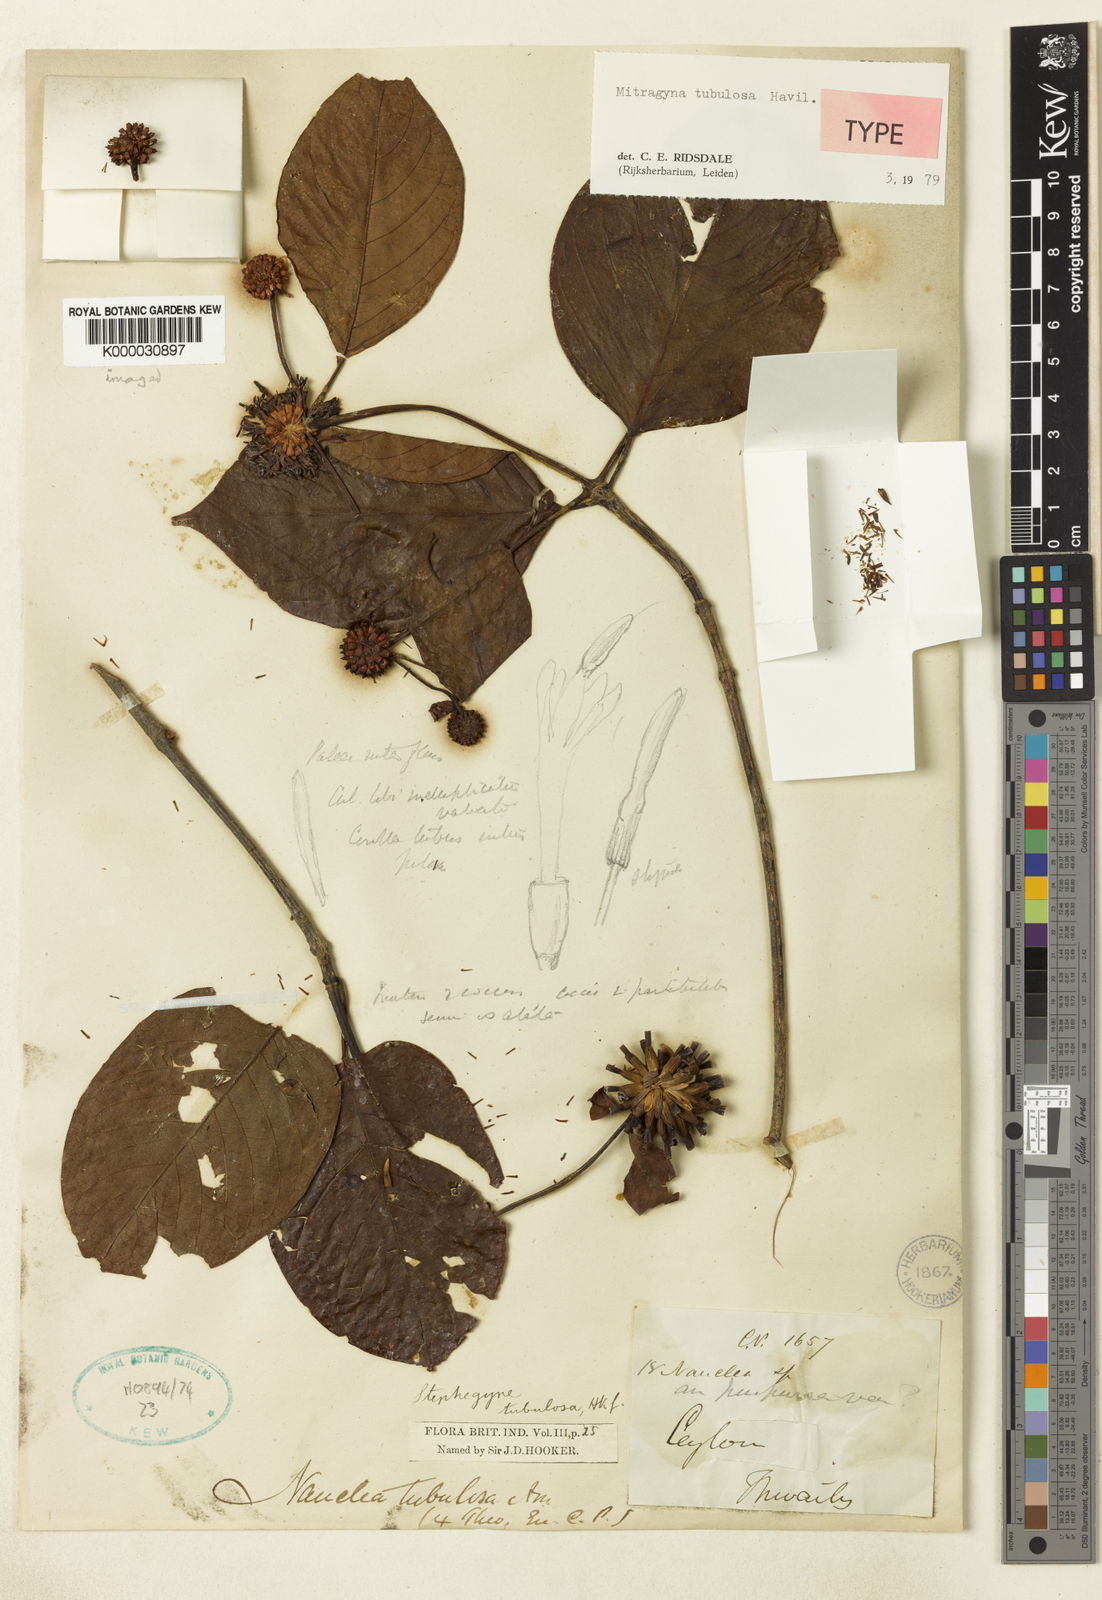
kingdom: Plantae
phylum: Tracheophyta
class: Magnoliopsida
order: Gentianales
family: Rubiaceae
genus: Mitragyna
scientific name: Mitragyna
